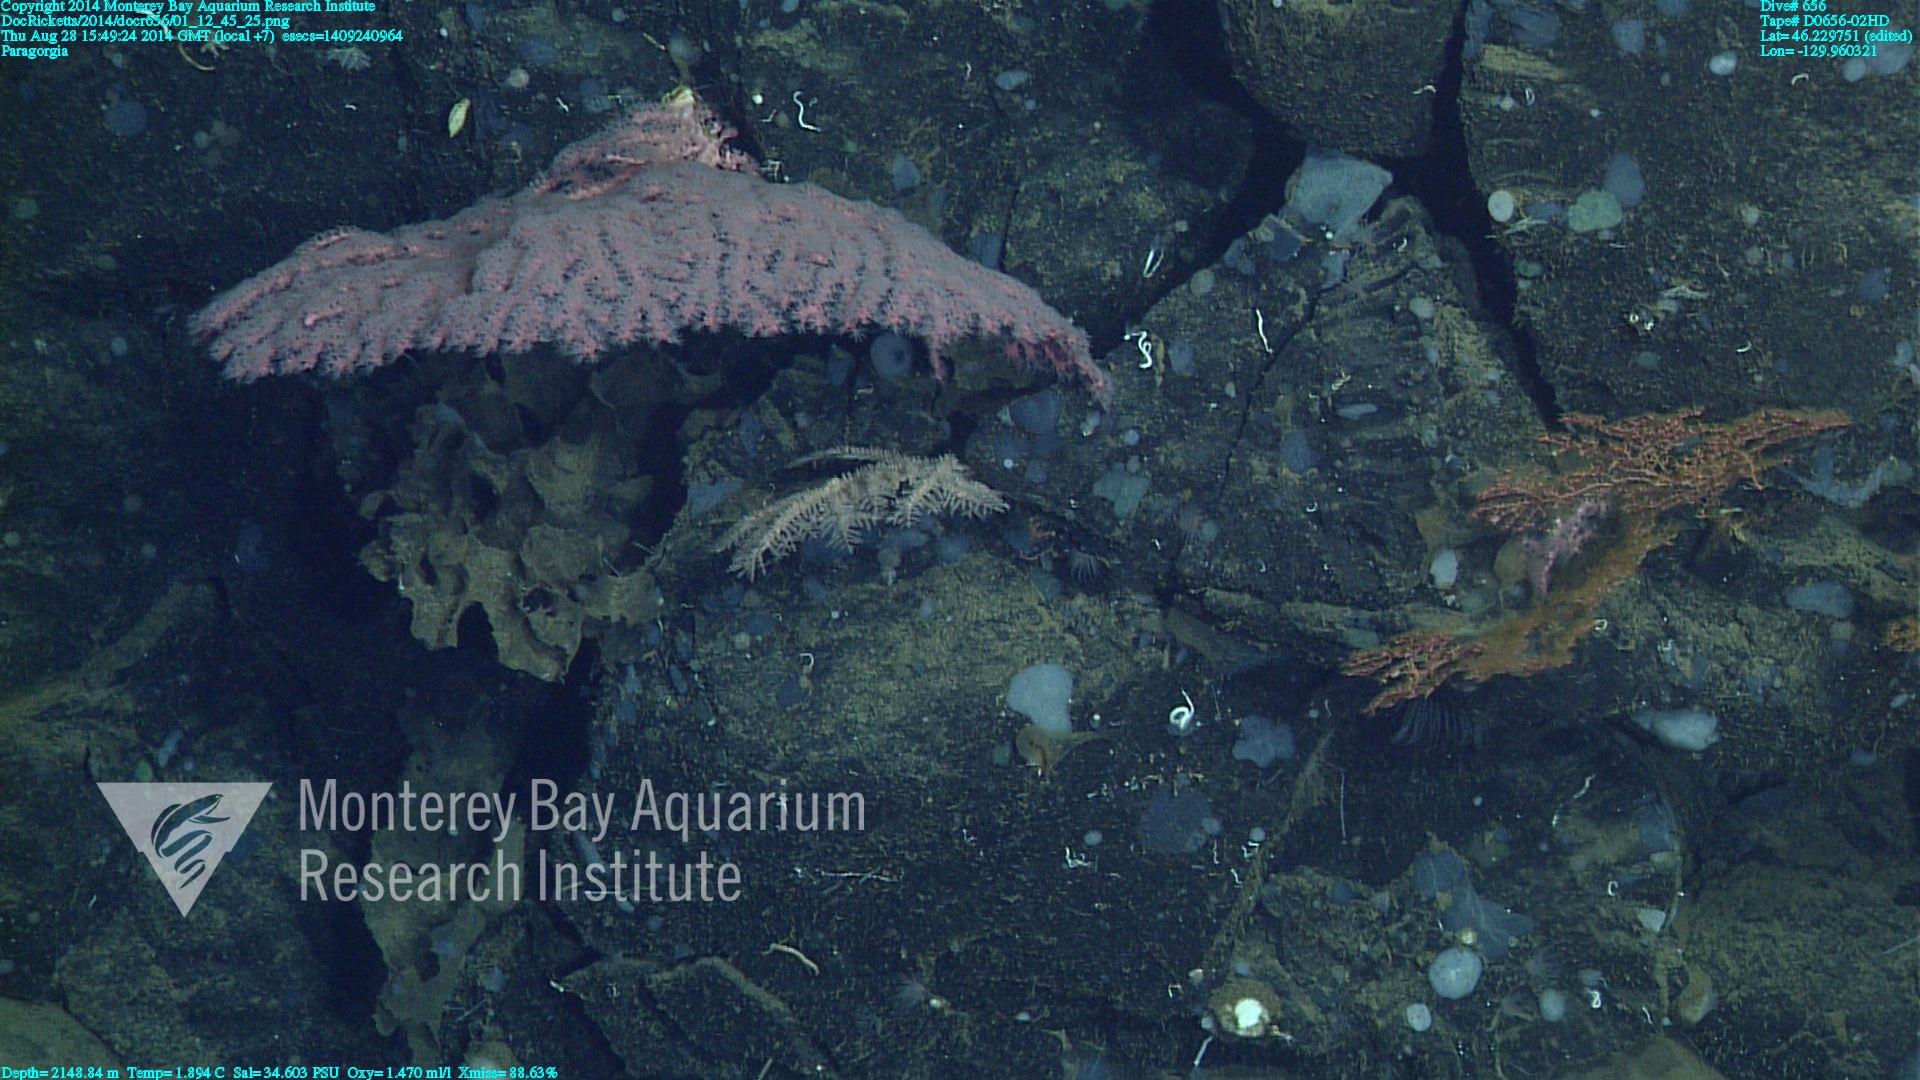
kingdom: Animalia
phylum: Cnidaria
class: Anthozoa
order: Scleralcyonacea
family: Coralliidae
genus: Paragorgia
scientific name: Paragorgia
